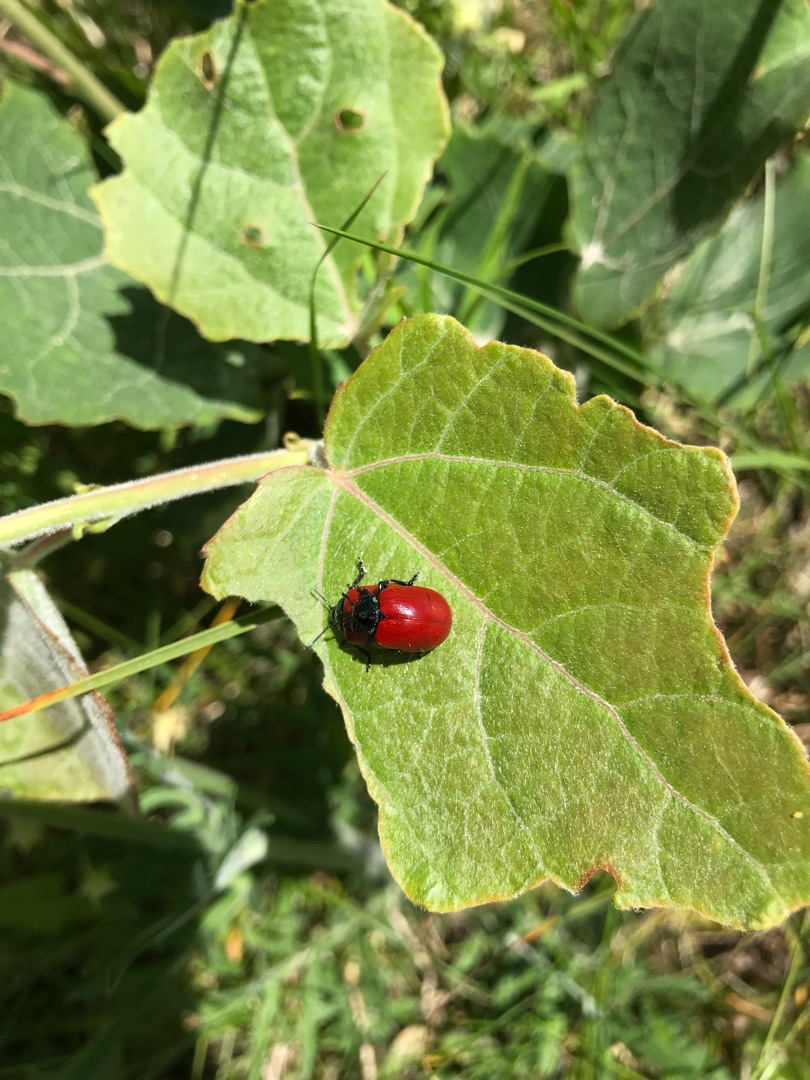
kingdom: Animalia
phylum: Arthropoda
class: Insecta
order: Coleoptera
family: Chrysomelidae
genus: Chrysomela
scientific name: Chrysomela populi
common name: Poppelbladbille
